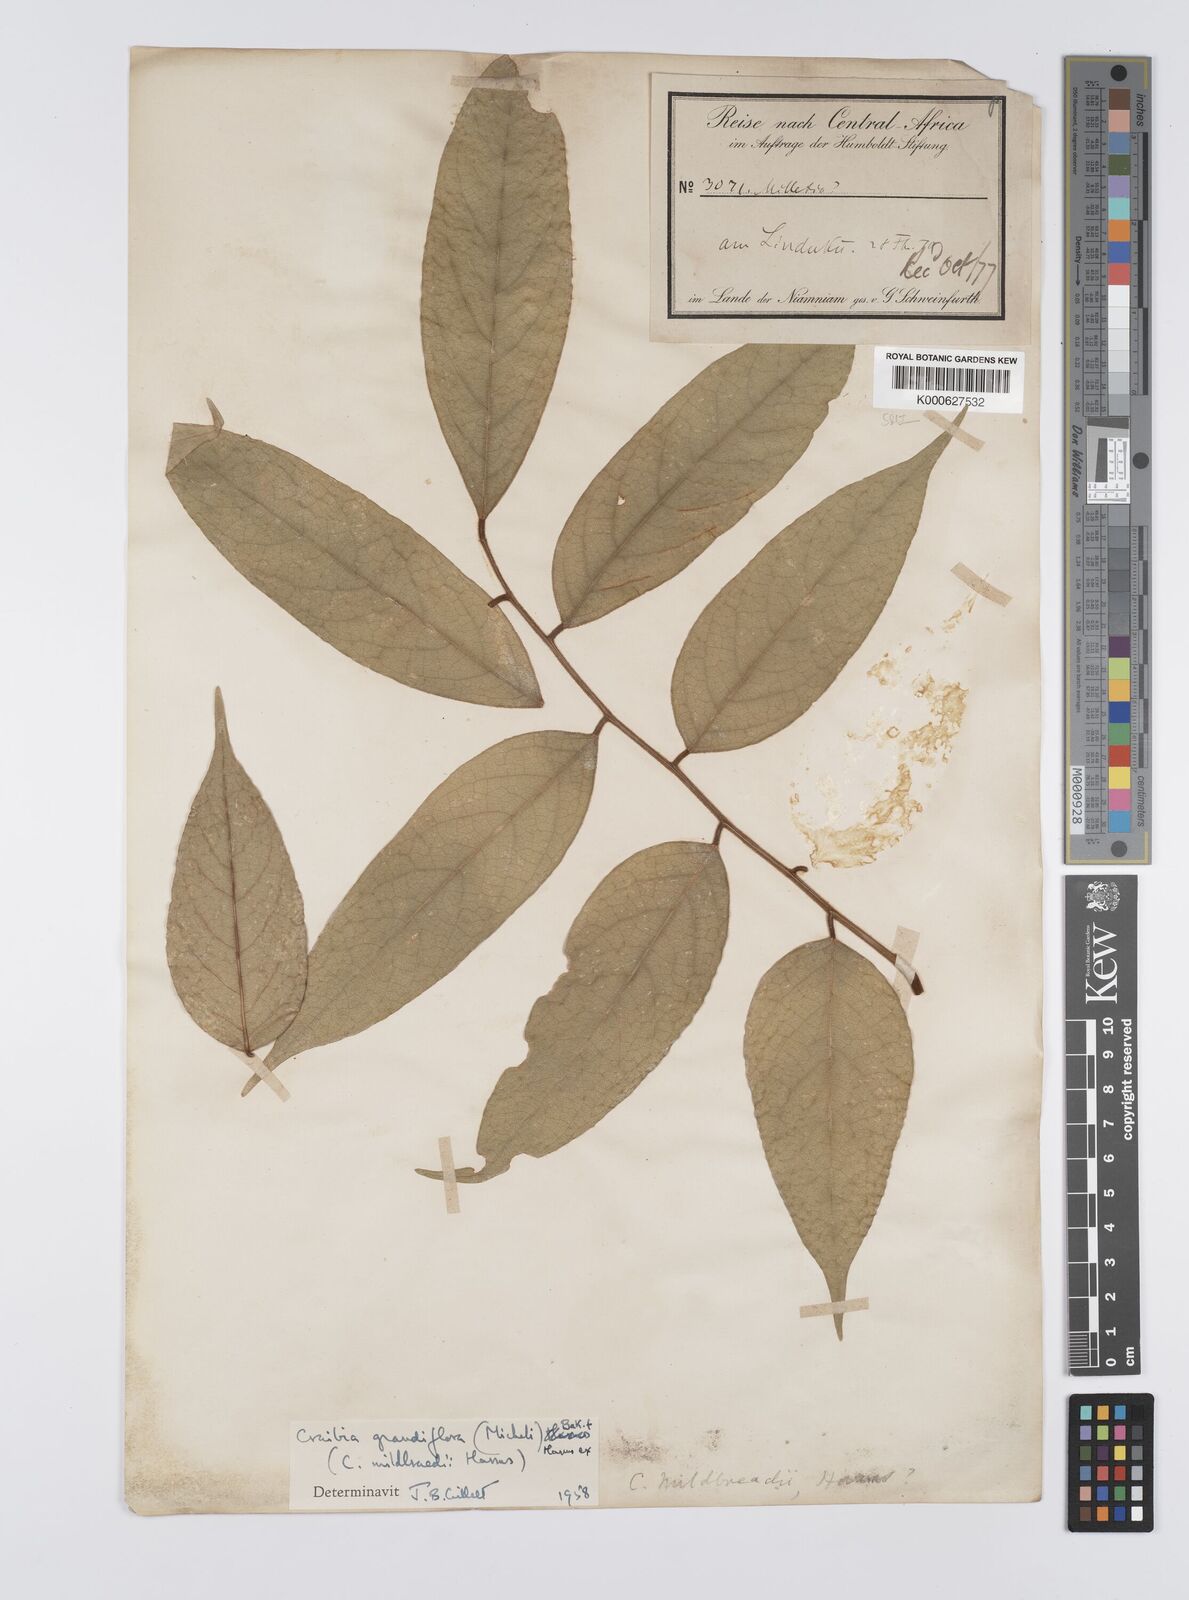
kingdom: Plantae
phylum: Tracheophyta
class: Magnoliopsida
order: Fabales
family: Fabaceae
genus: Craibia
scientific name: Craibia grandiflora
